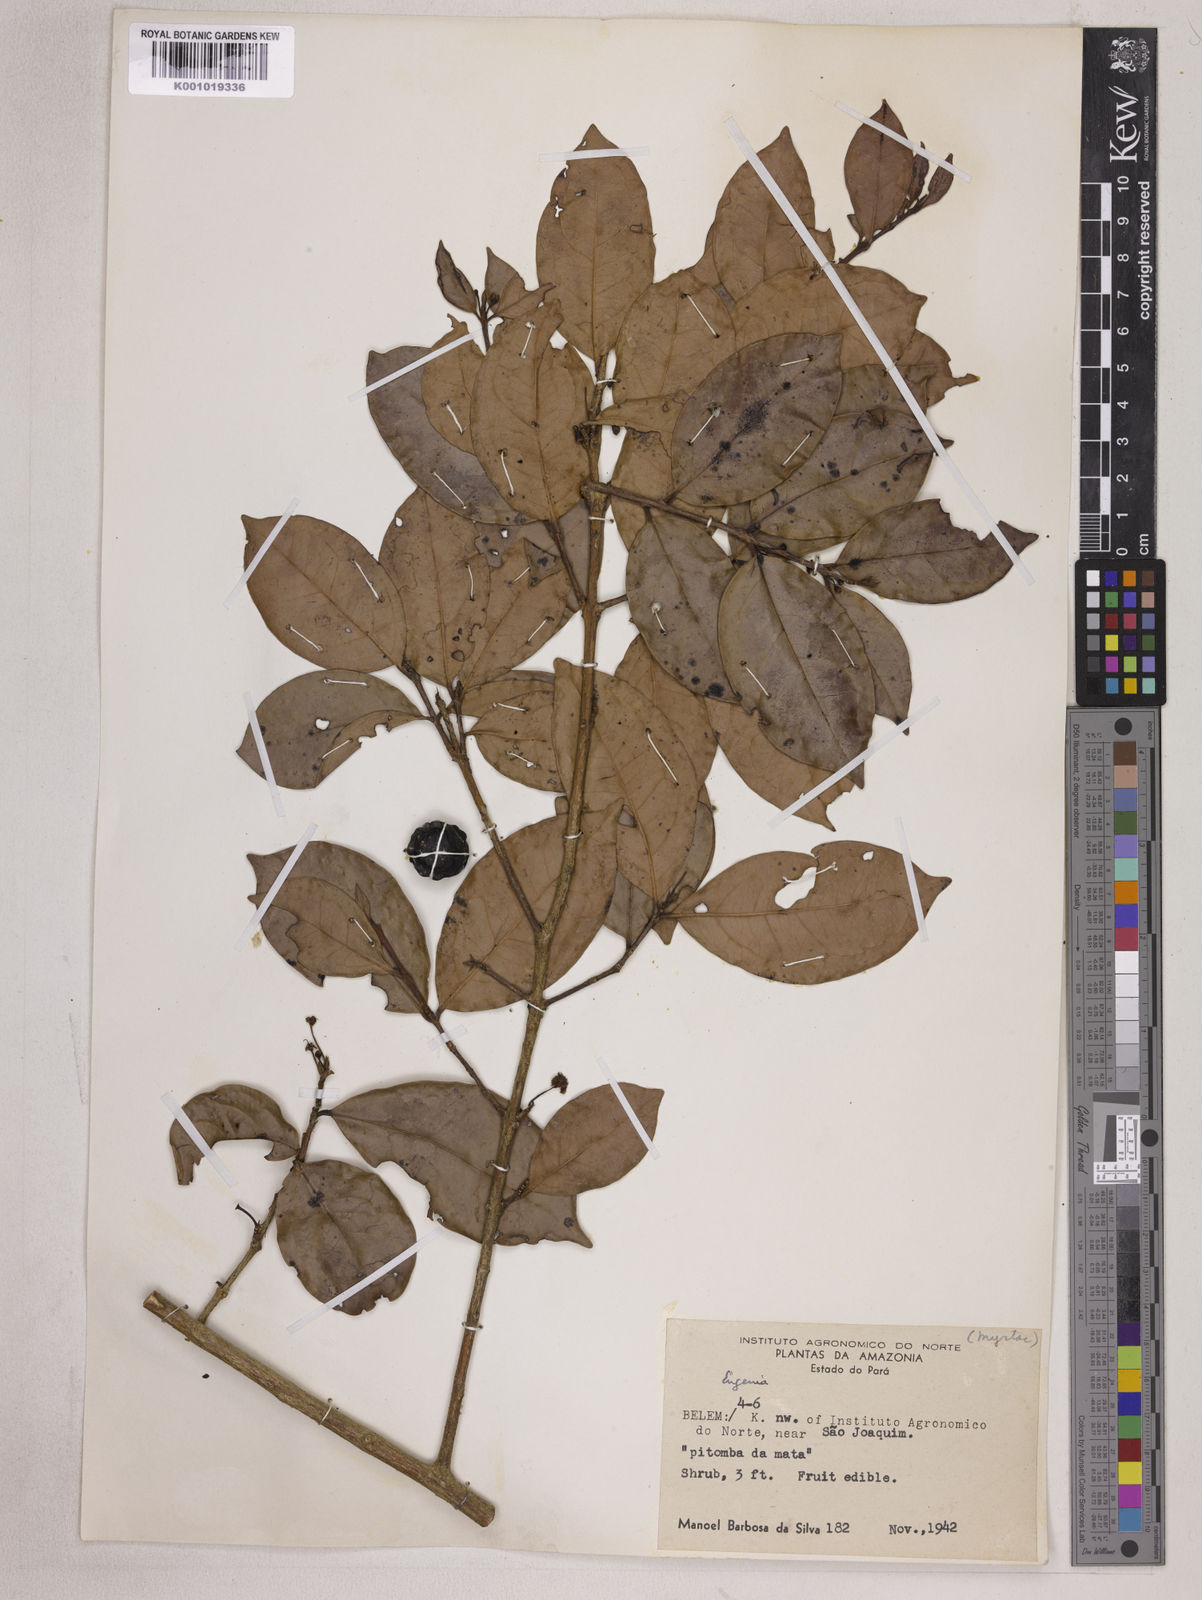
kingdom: Plantae
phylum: Tracheophyta
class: Magnoliopsida
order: Myrtales
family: Myrtaceae
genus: Eugenia
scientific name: Eugenia patrisii
